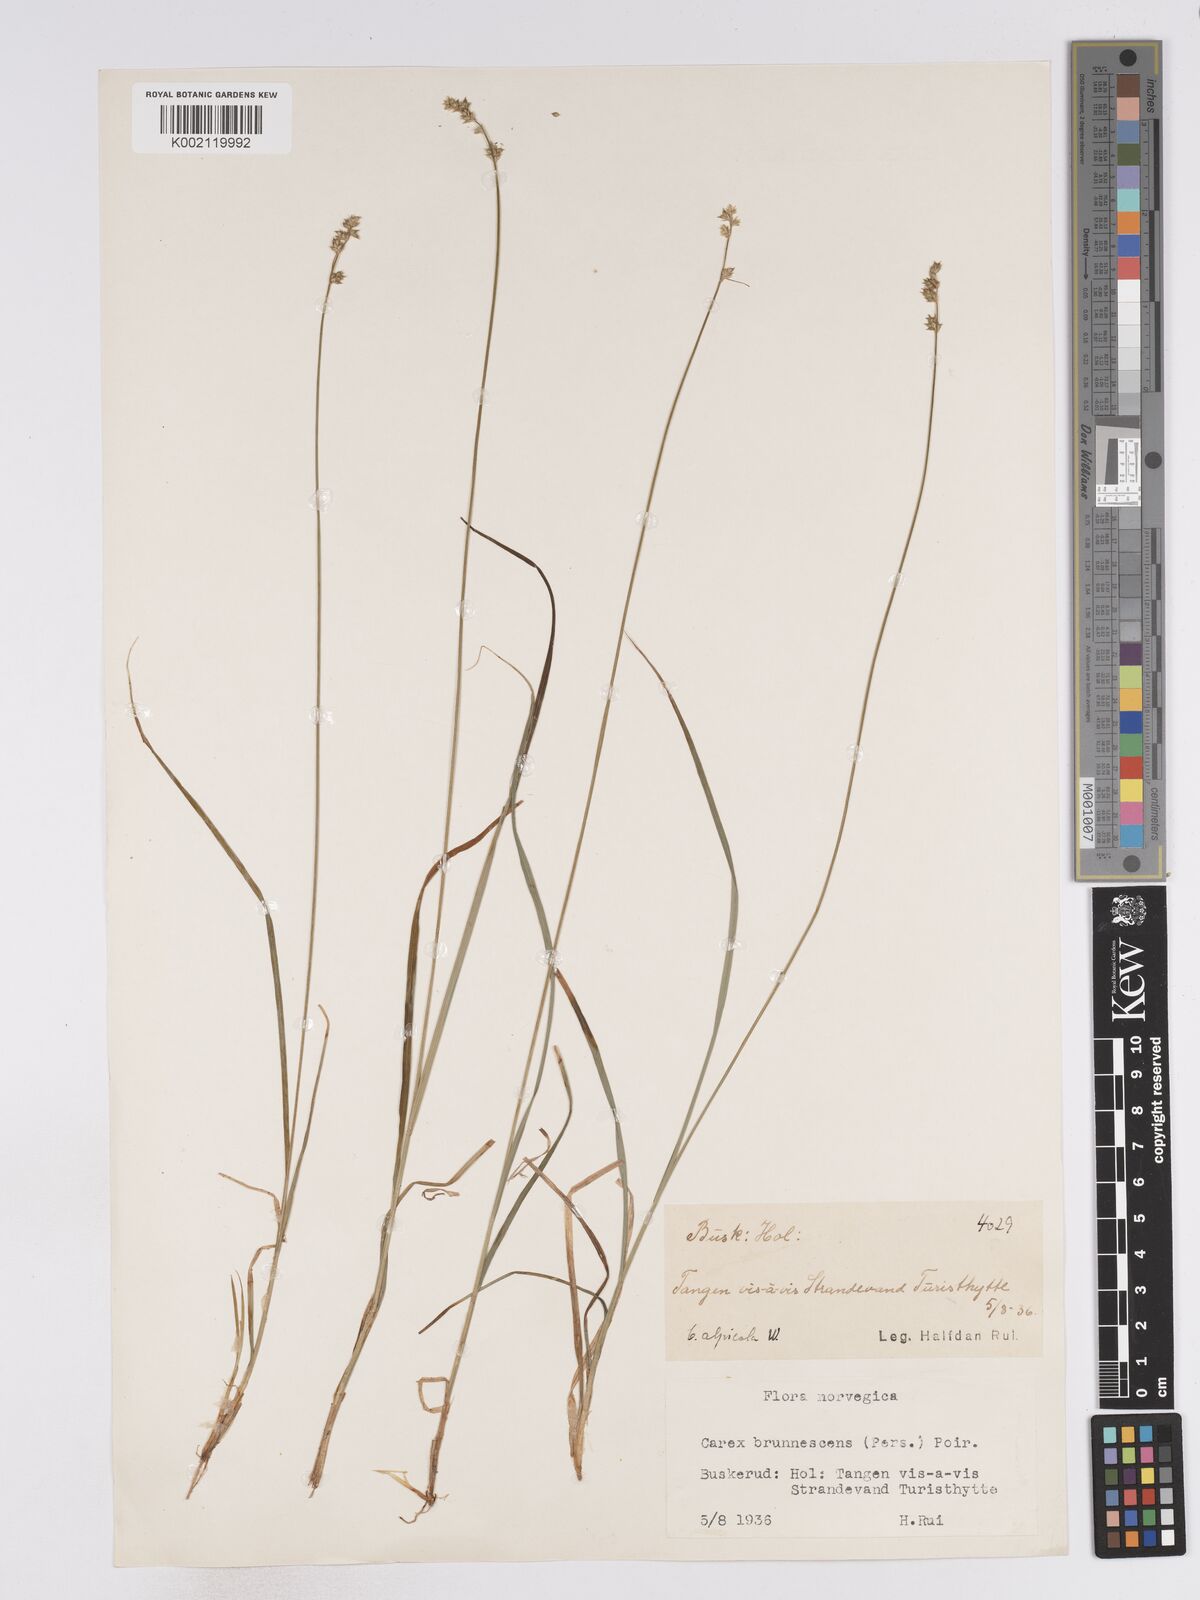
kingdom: Plantae
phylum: Tracheophyta
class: Liliopsida
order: Poales
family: Cyperaceae
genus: Carex
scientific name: Carex brunnescens
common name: Brown sedge
